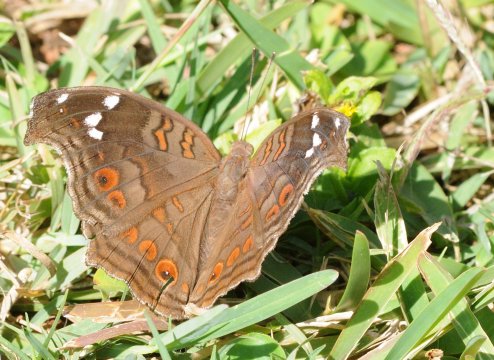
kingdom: Animalia
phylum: Arthropoda
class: Insecta
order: Lepidoptera
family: Nymphalidae
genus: Junonia
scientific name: Junonia natalica
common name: Natal Pansy
